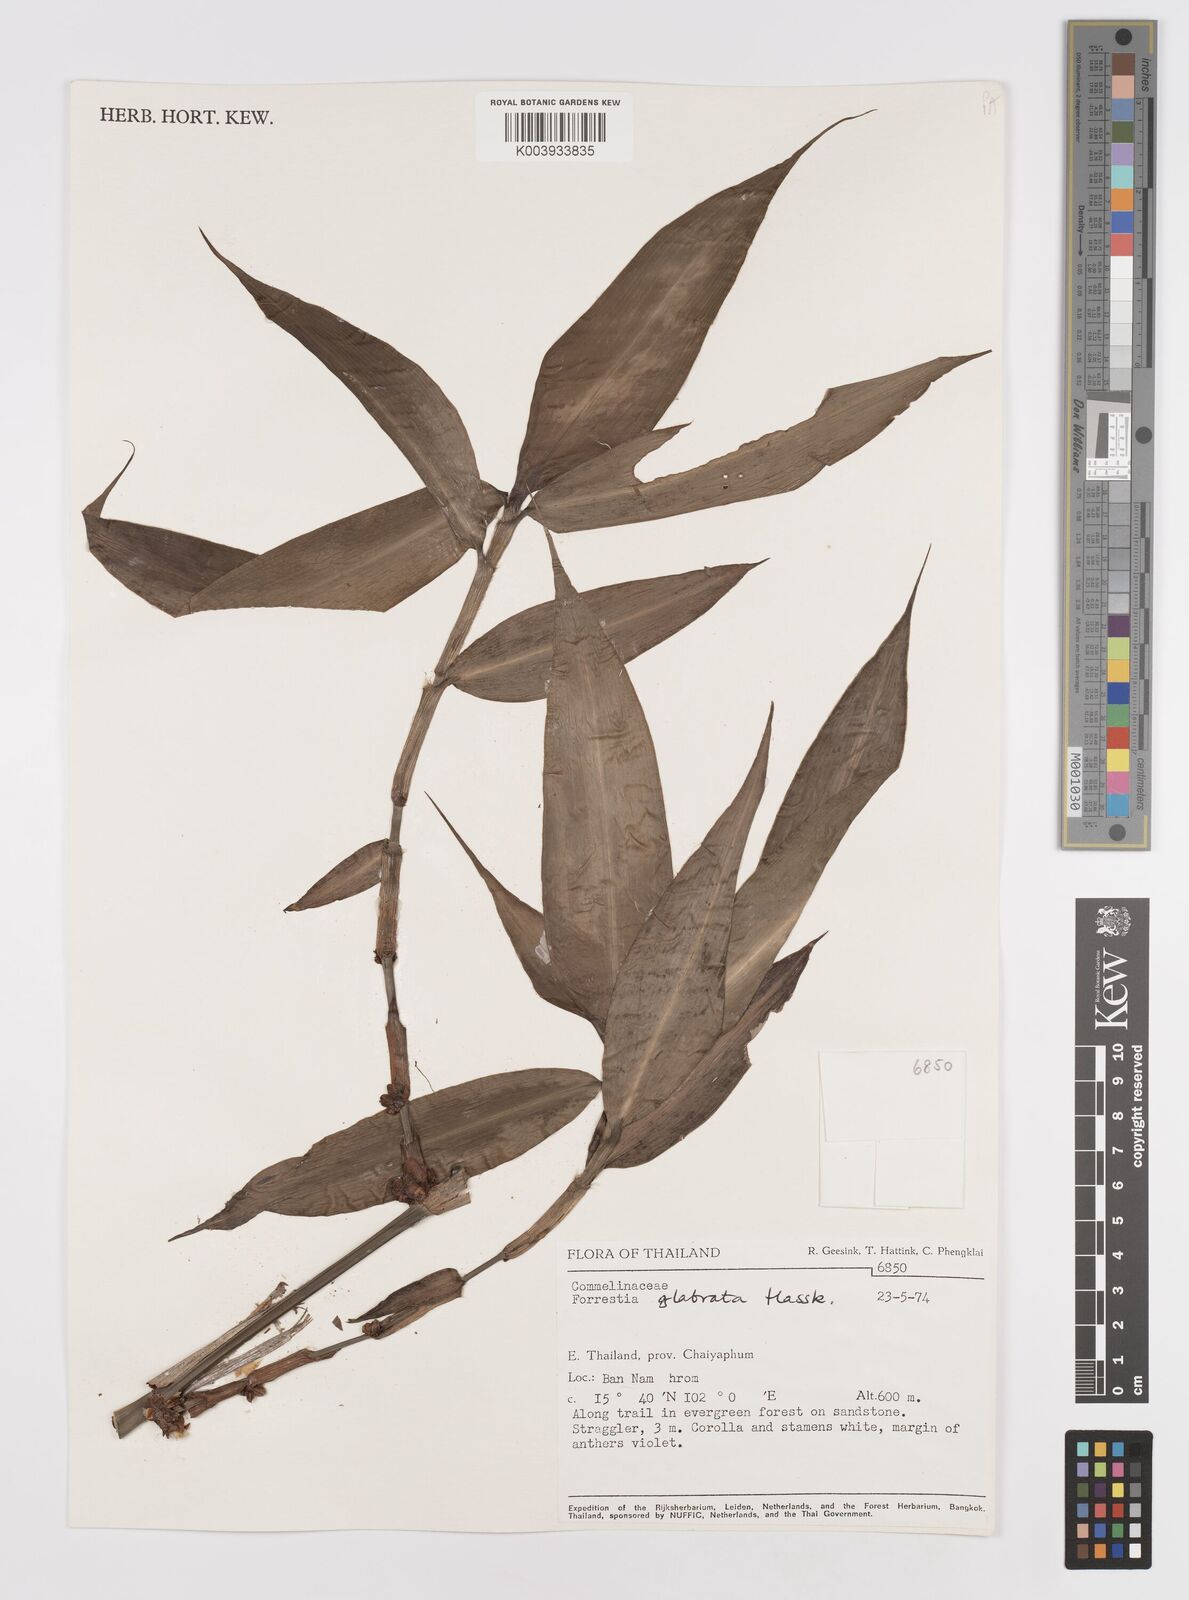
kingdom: Plantae
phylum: Tracheophyta
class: Liliopsida
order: Commelinales
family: Commelinaceae
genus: Amischotolype
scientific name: Amischotolype glabrata
